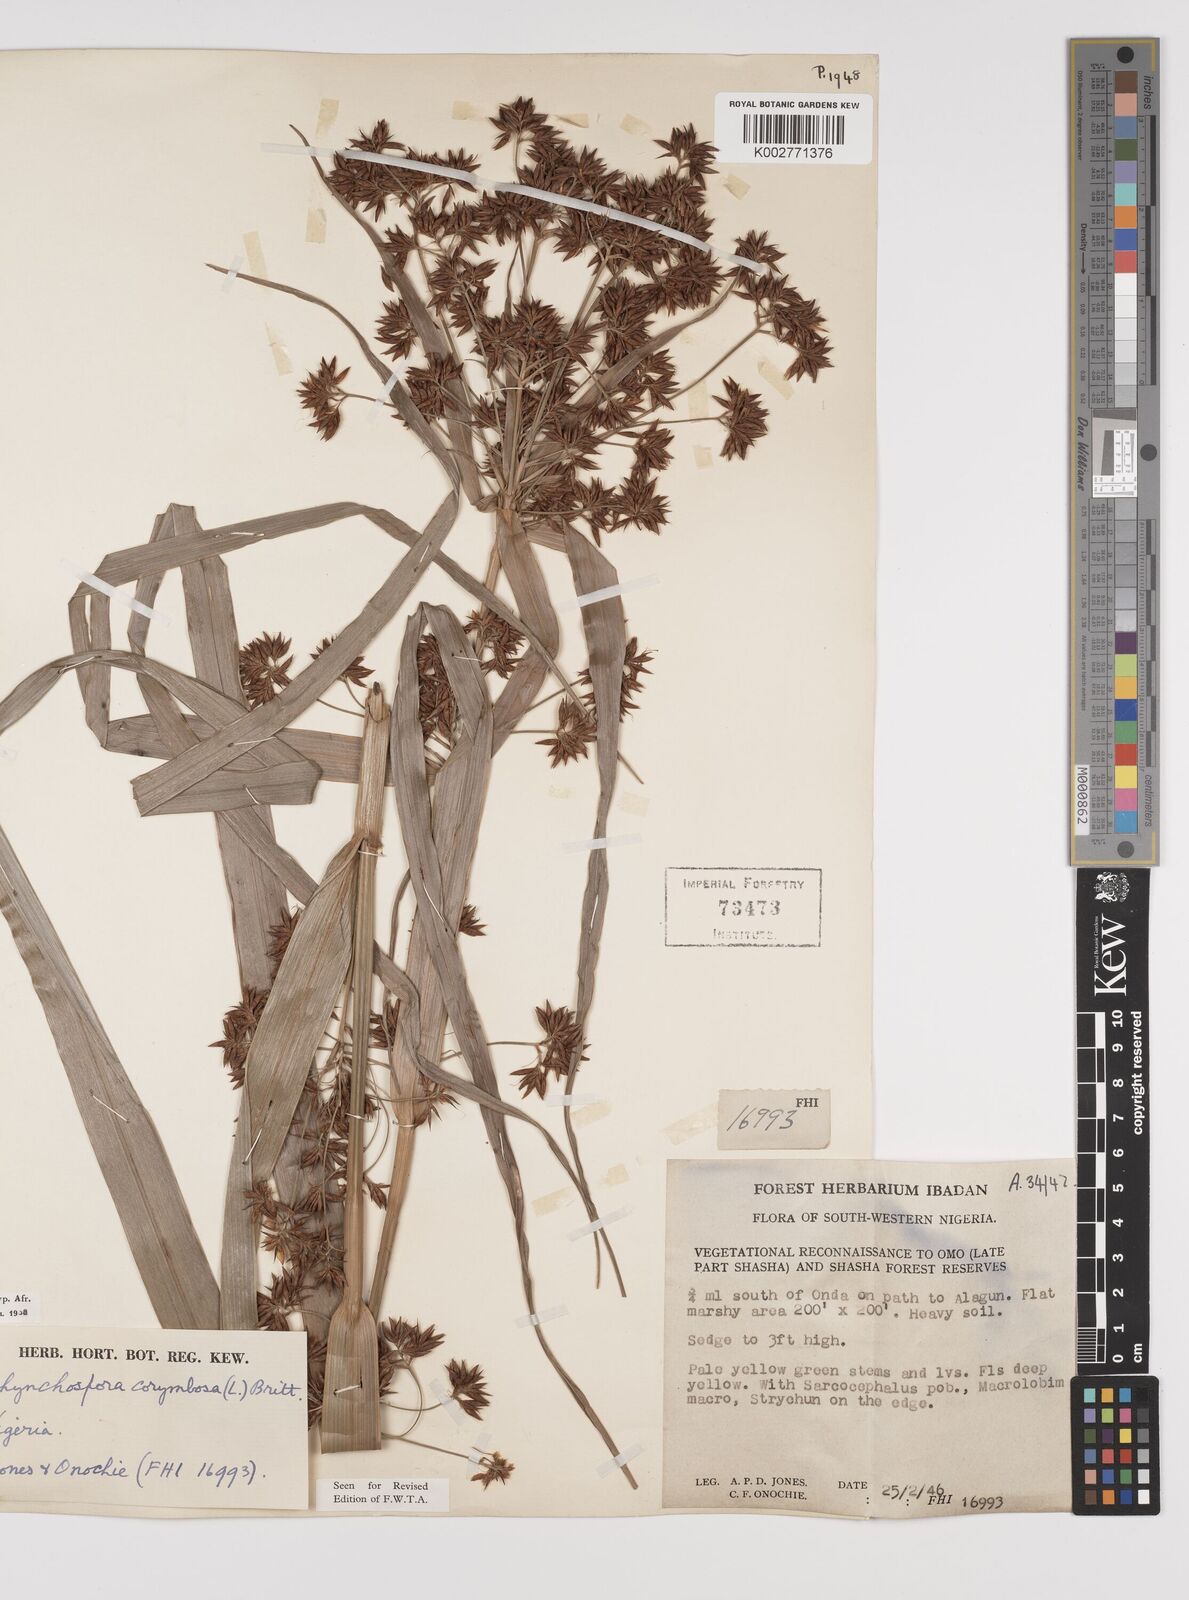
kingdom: Plantae
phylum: Tracheophyta
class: Liliopsida
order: Poales
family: Cyperaceae
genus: Rhynchospora
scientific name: Rhynchospora corymbosa
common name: Golden beak sedge
